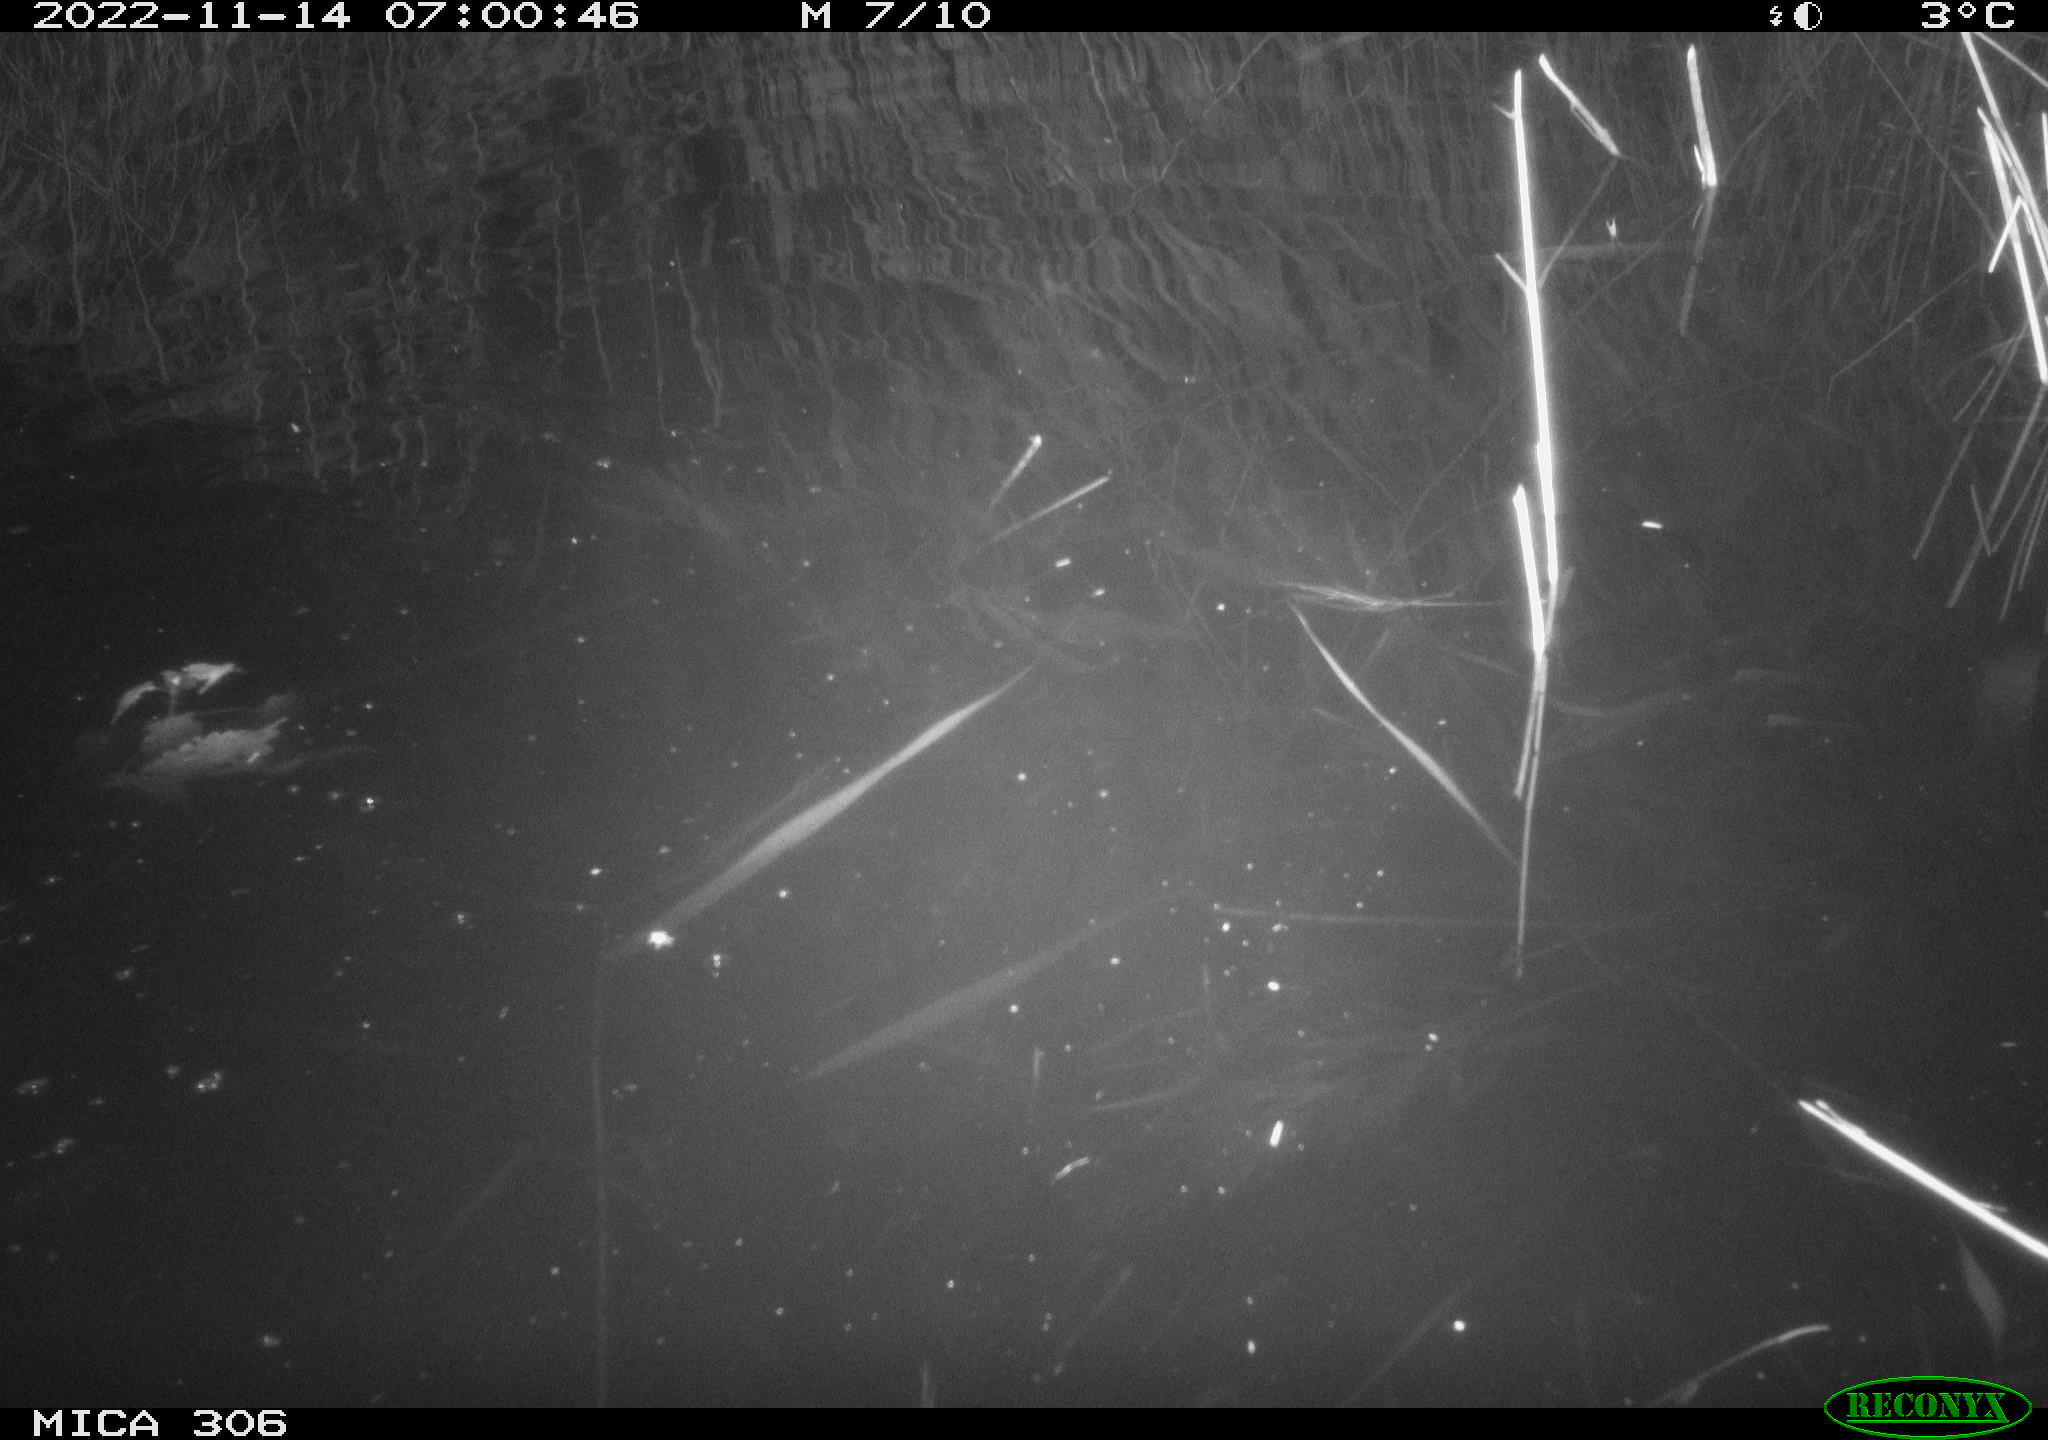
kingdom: Animalia
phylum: Chordata
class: Mammalia
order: Rodentia
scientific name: Rodentia
